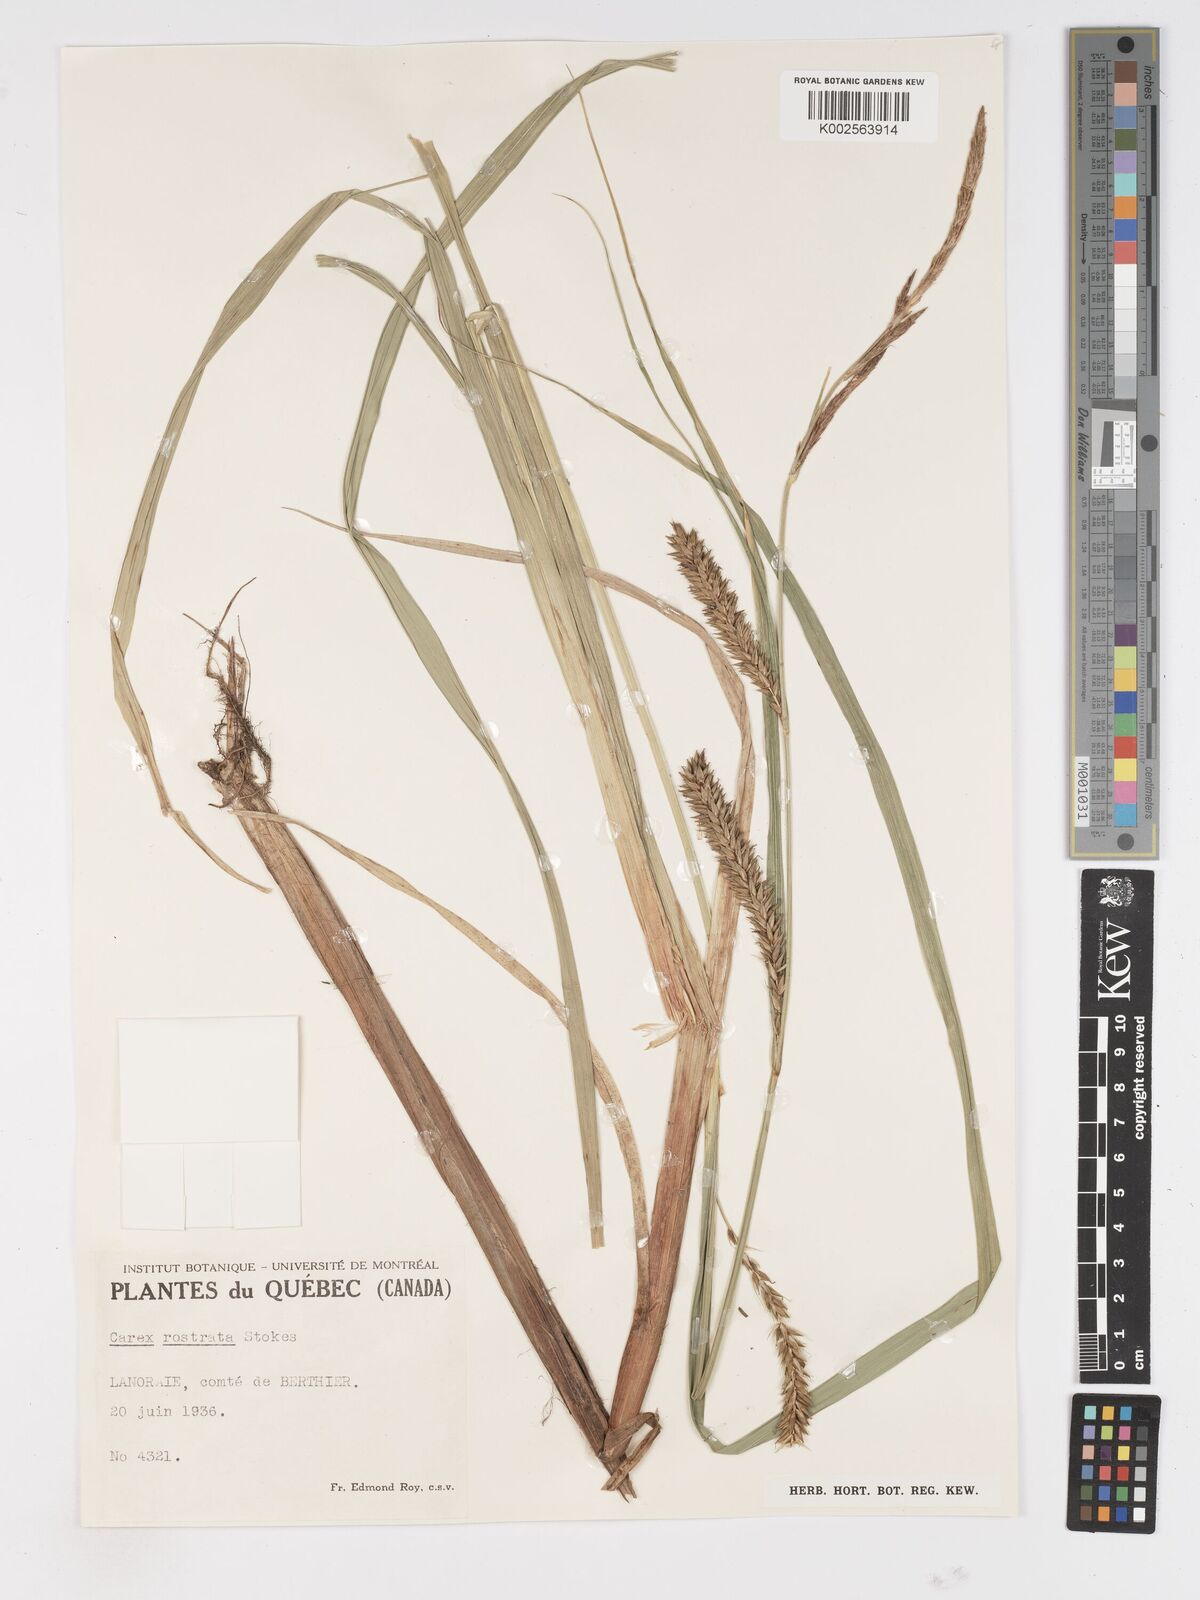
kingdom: Plantae
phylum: Tracheophyta
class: Liliopsida
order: Poales
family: Cyperaceae
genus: Carex
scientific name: Carex rostrata
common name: Bottle sedge
